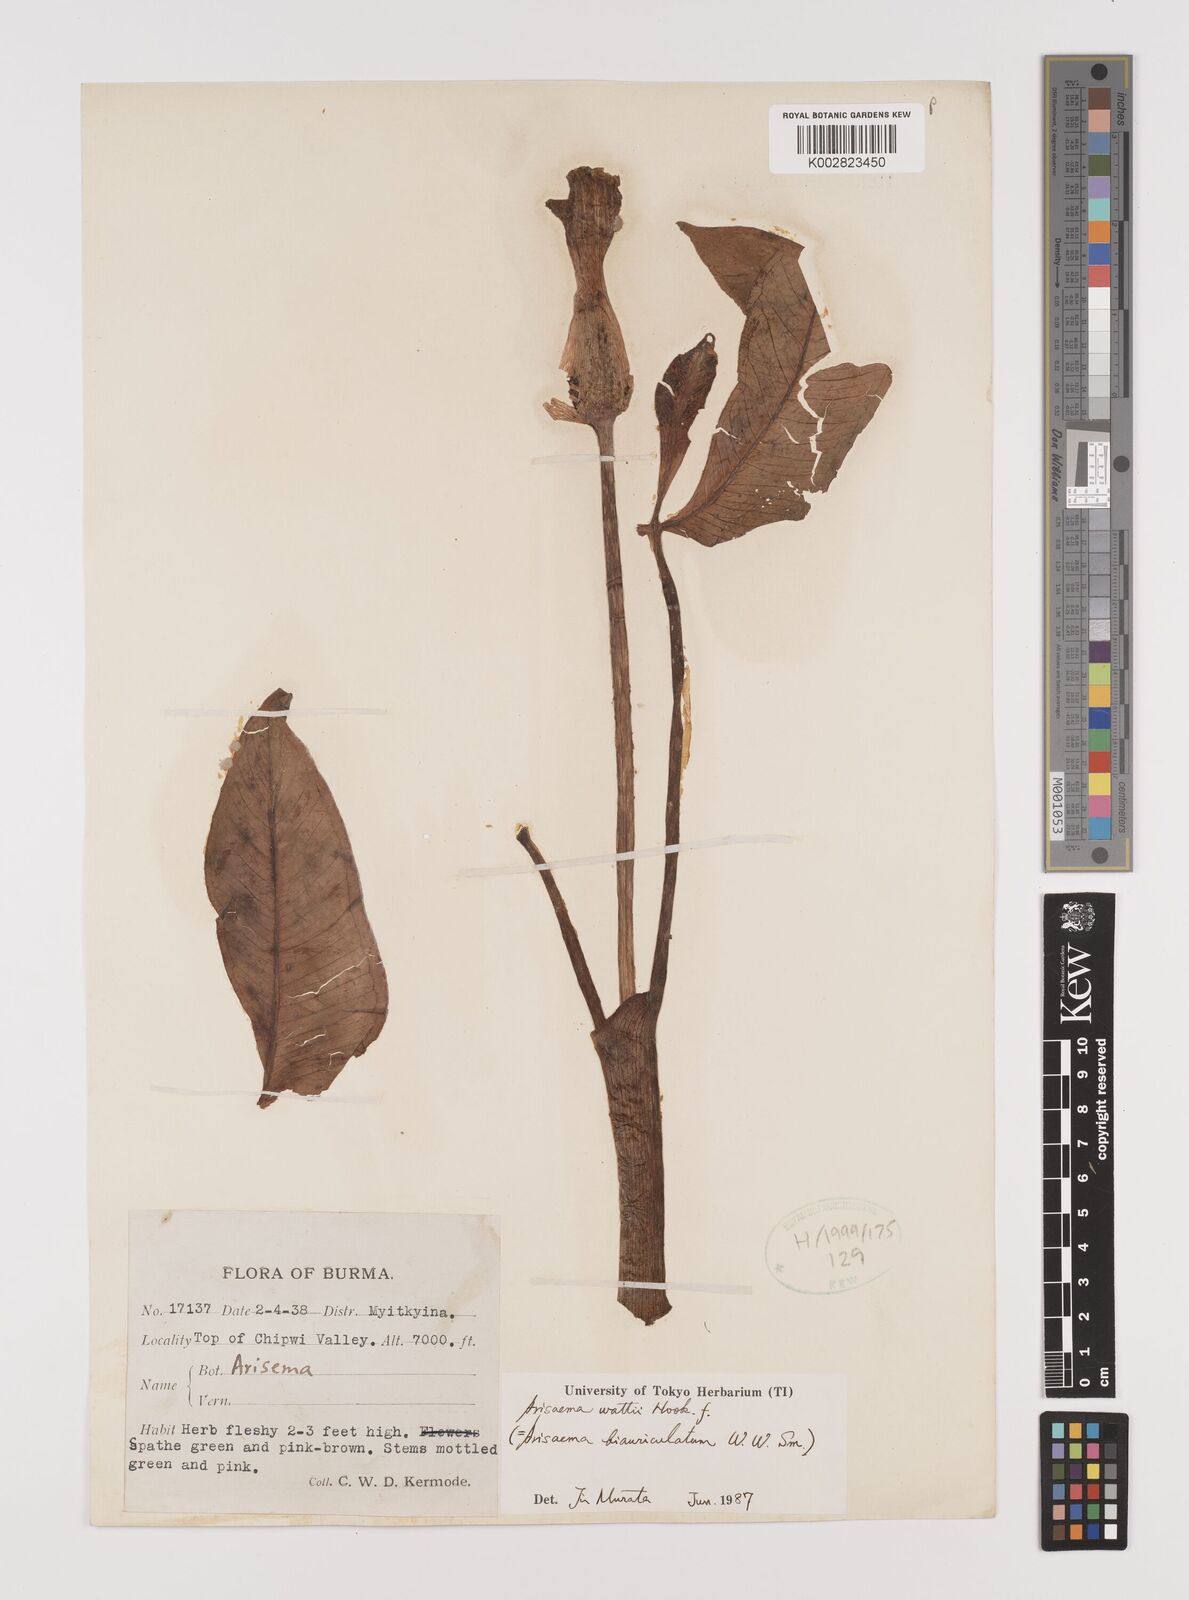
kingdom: Plantae
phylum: Tracheophyta
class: Liliopsida
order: Alismatales
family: Araceae
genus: Arisaema
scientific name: Arisaema wattii
